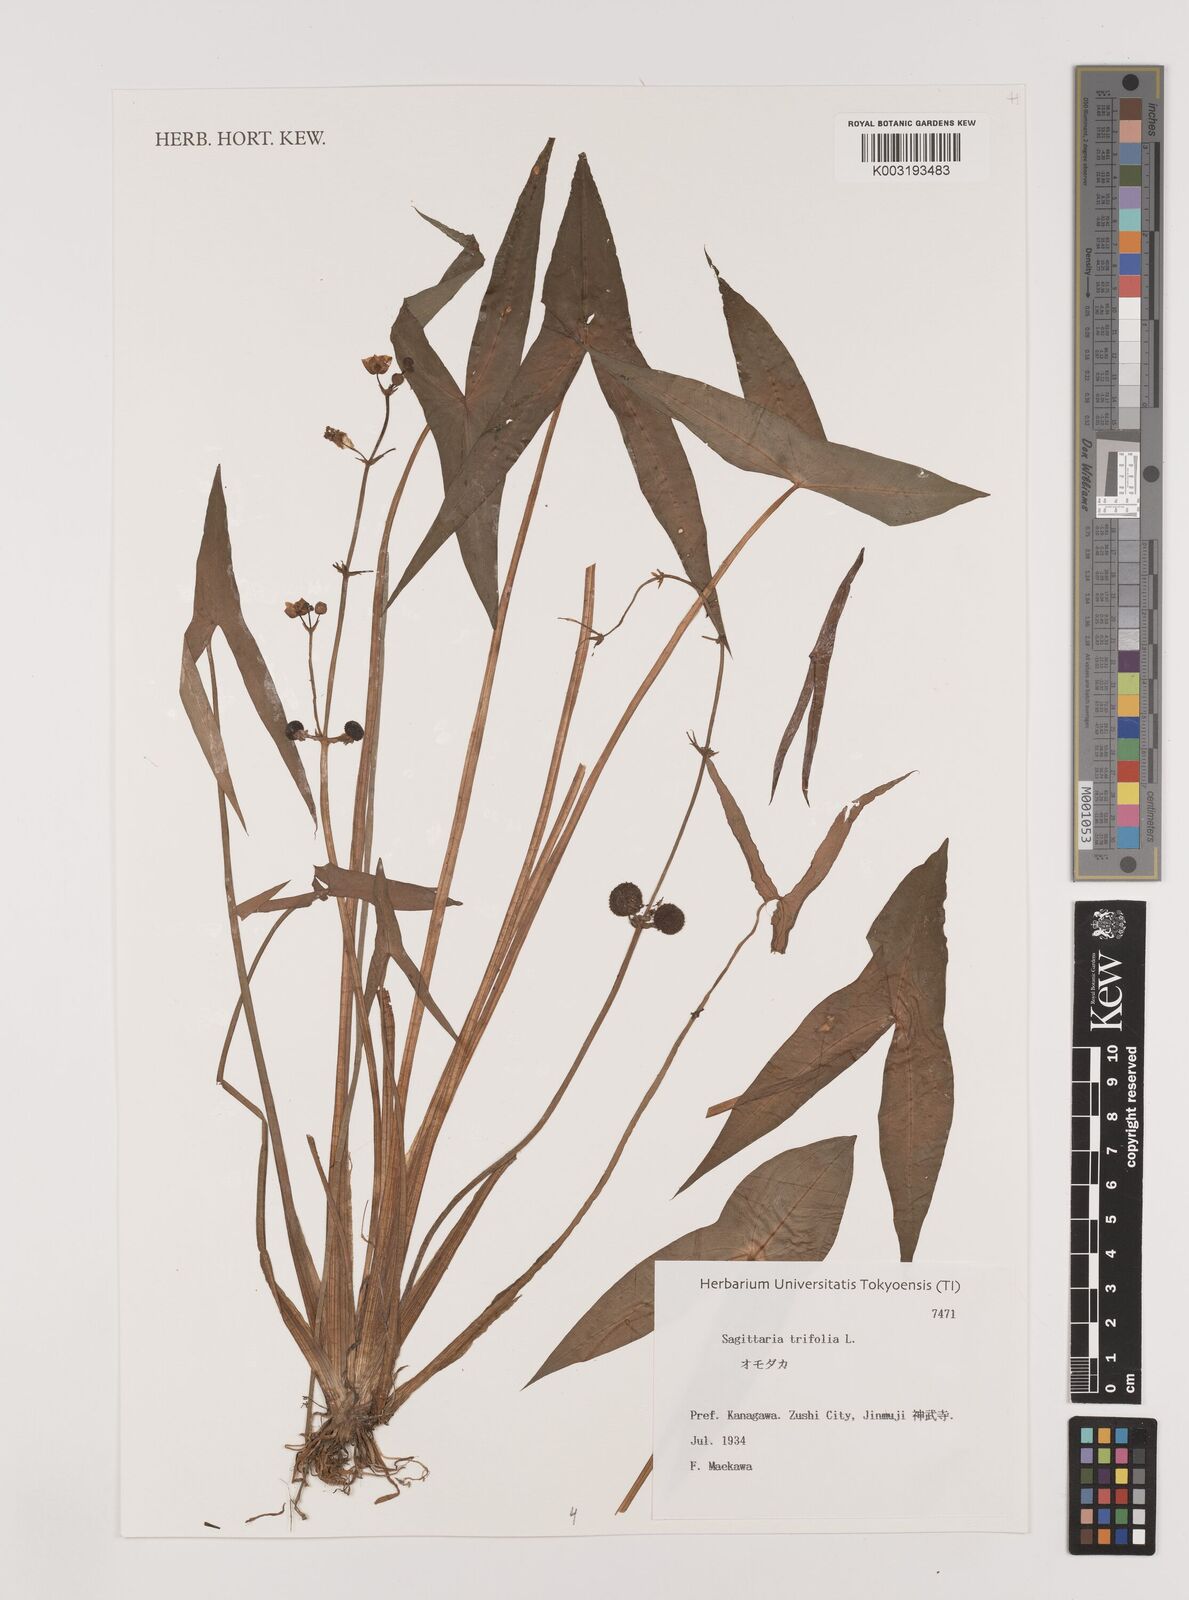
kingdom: Plantae
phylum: Tracheophyta
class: Liliopsida
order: Alismatales
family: Alismataceae
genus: Sagittaria
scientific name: Sagittaria aginashi
